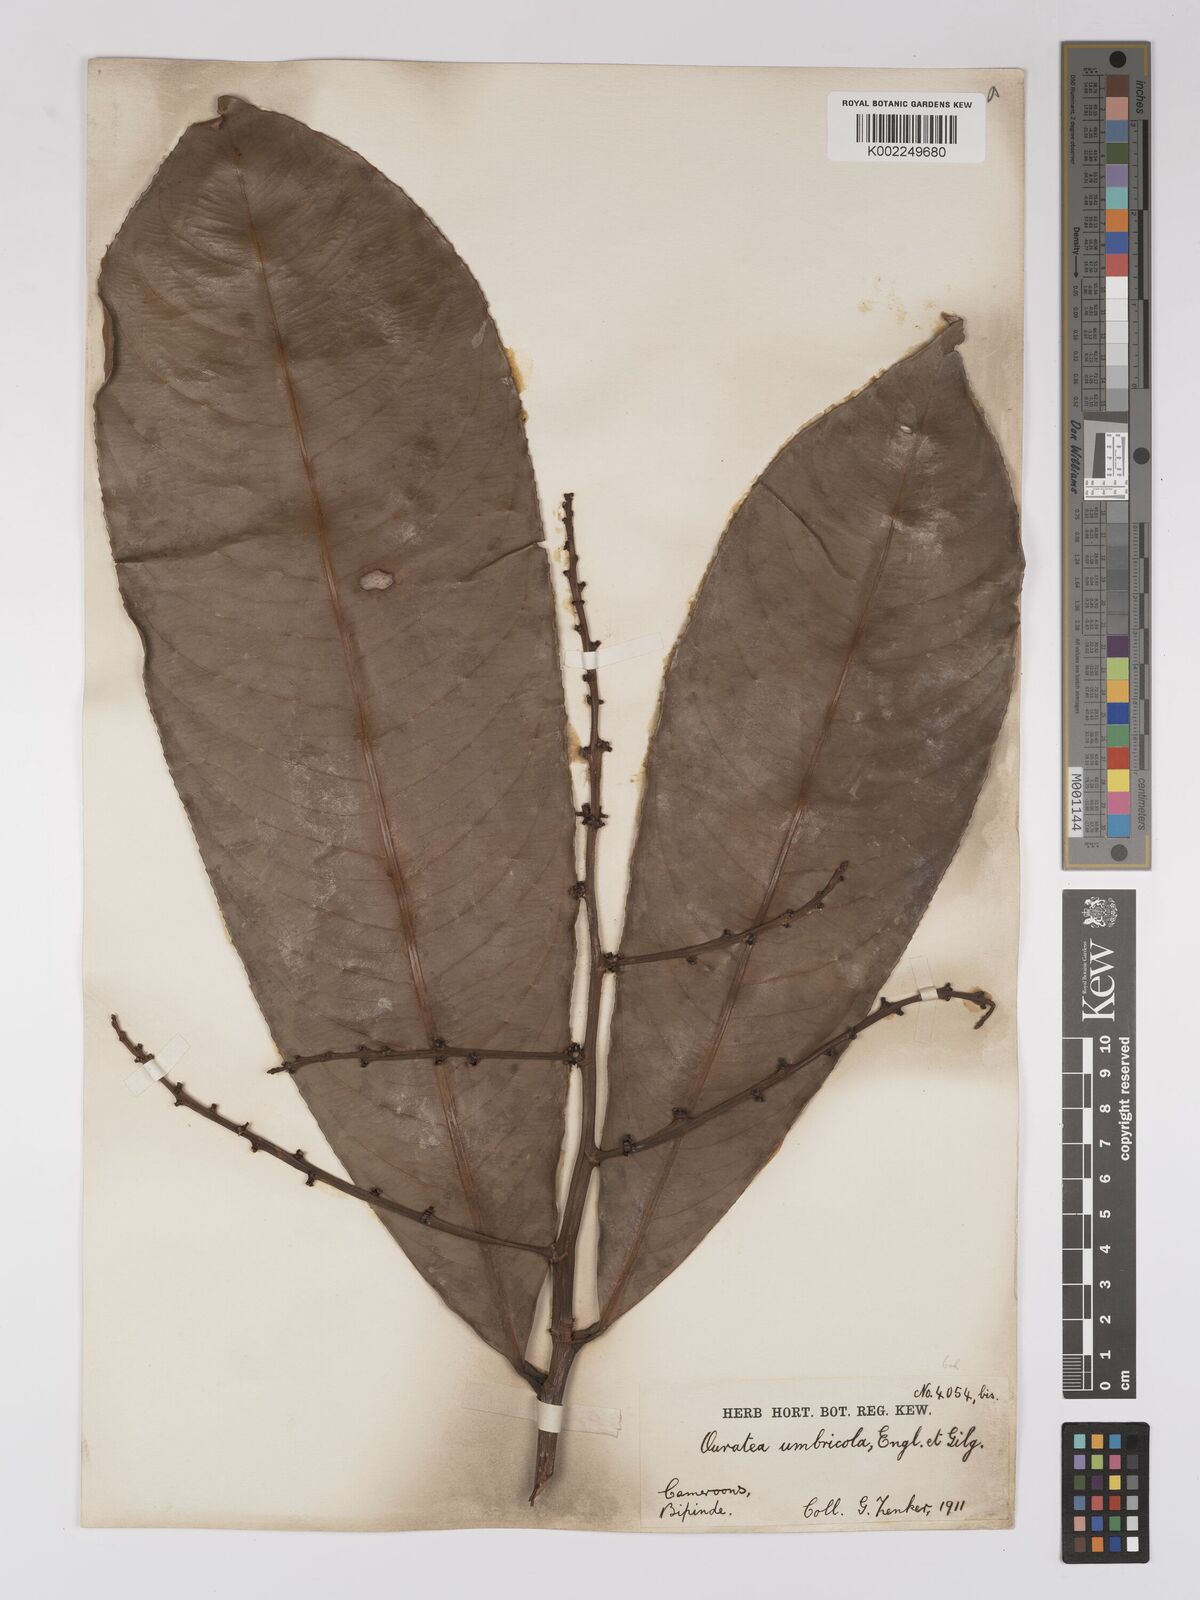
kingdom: Plantae
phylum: Tracheophyta
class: Magnoliopsida
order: Malpighiales
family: Ochnaceae
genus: Campylospermum
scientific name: Campylospermum umbricola
